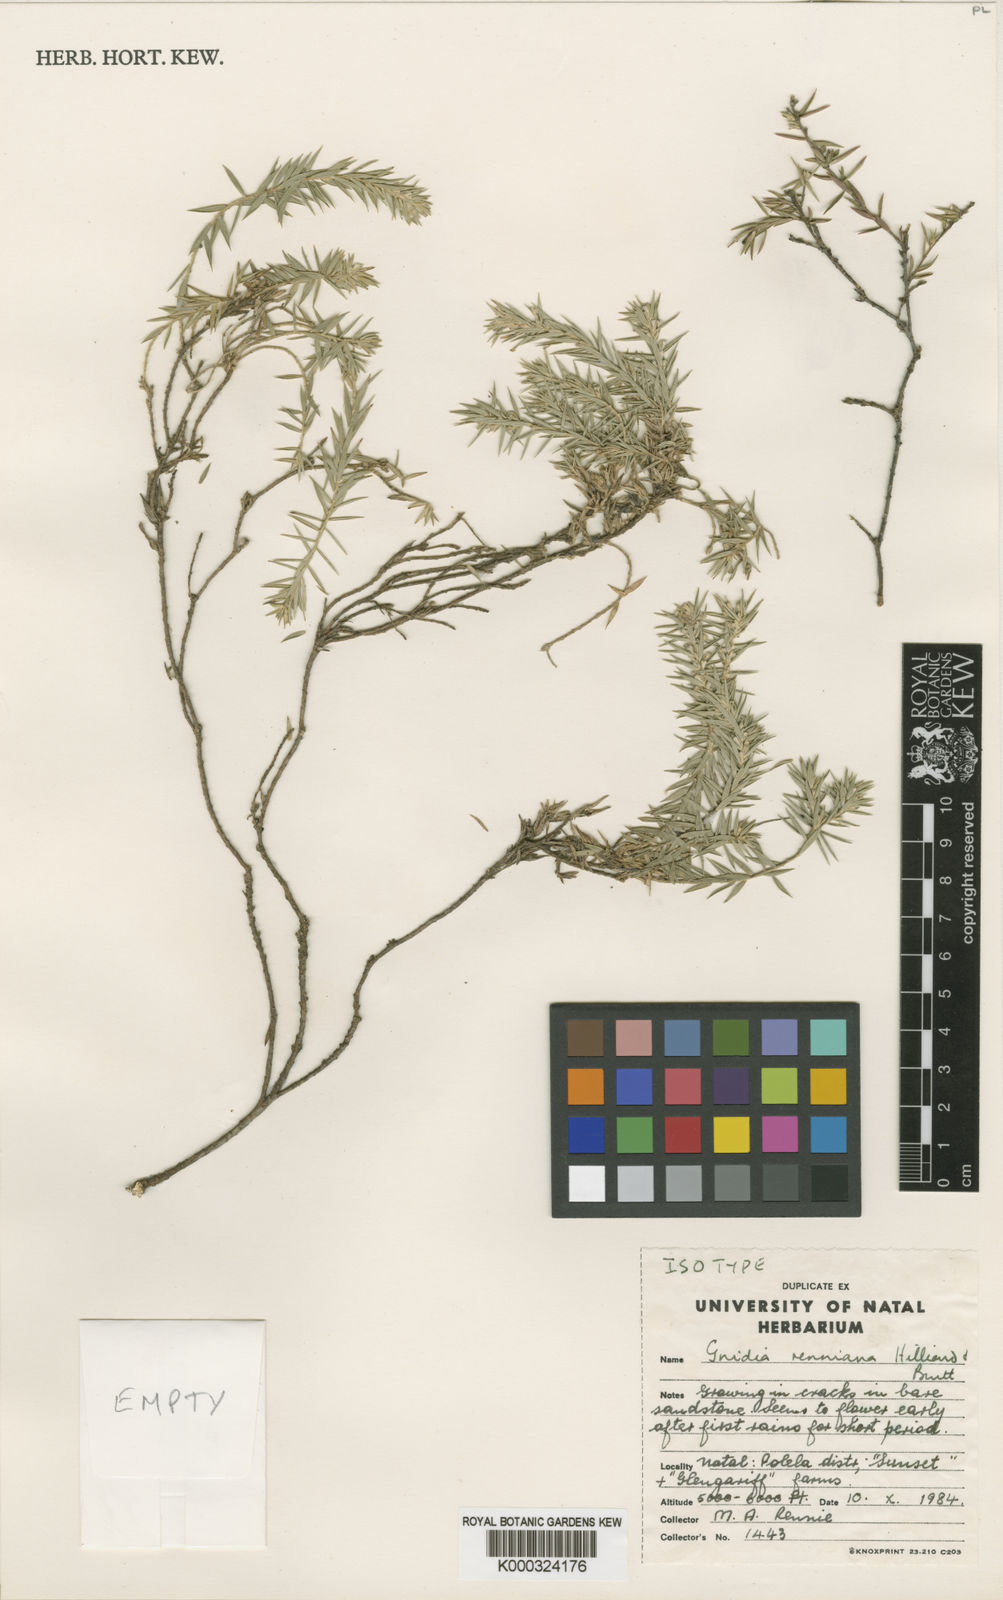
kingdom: Plantae
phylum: Tracheophyta
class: Magnoliopsida
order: Malvales
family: Thymelaeaceae
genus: Gnidia
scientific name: Gnidia renniana
